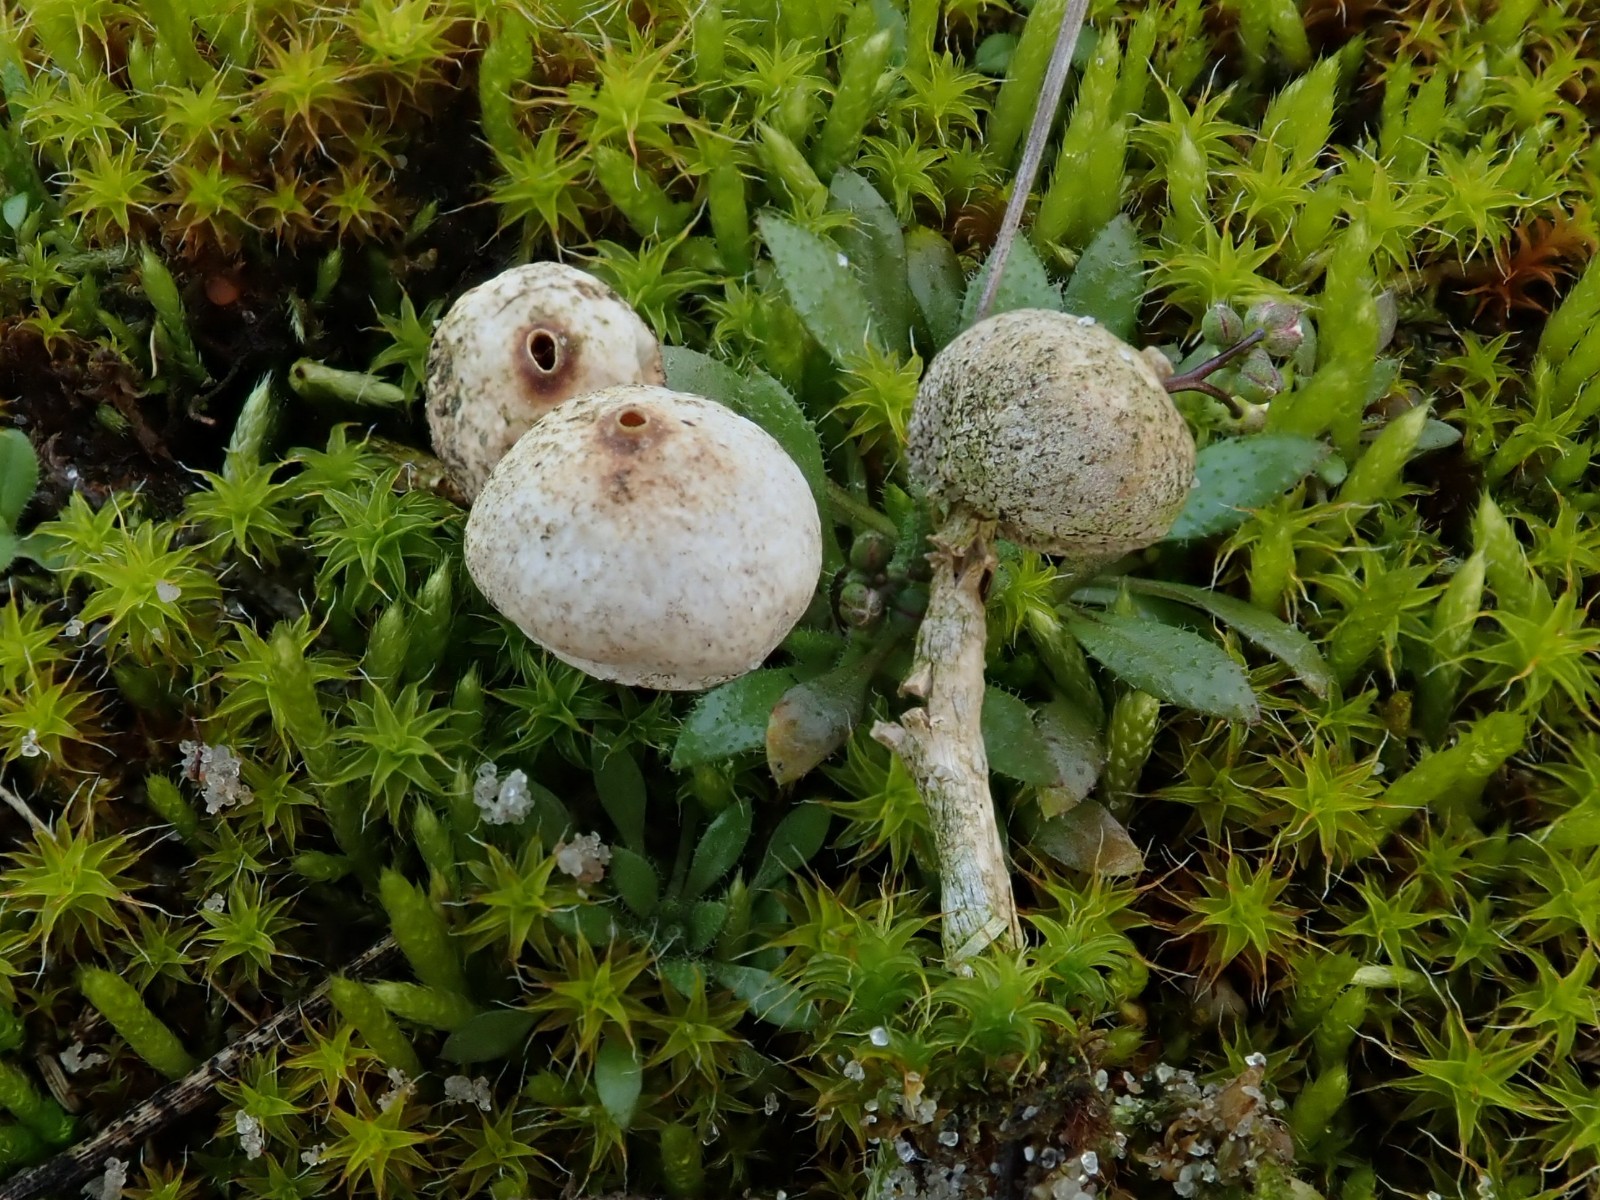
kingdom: Fungi
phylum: Basidiomycota
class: Agaricomycetes
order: Agaricales
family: Agaricaceae
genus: Tulostoma
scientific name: Tulostoma brumale
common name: vinter-stilkbovist
